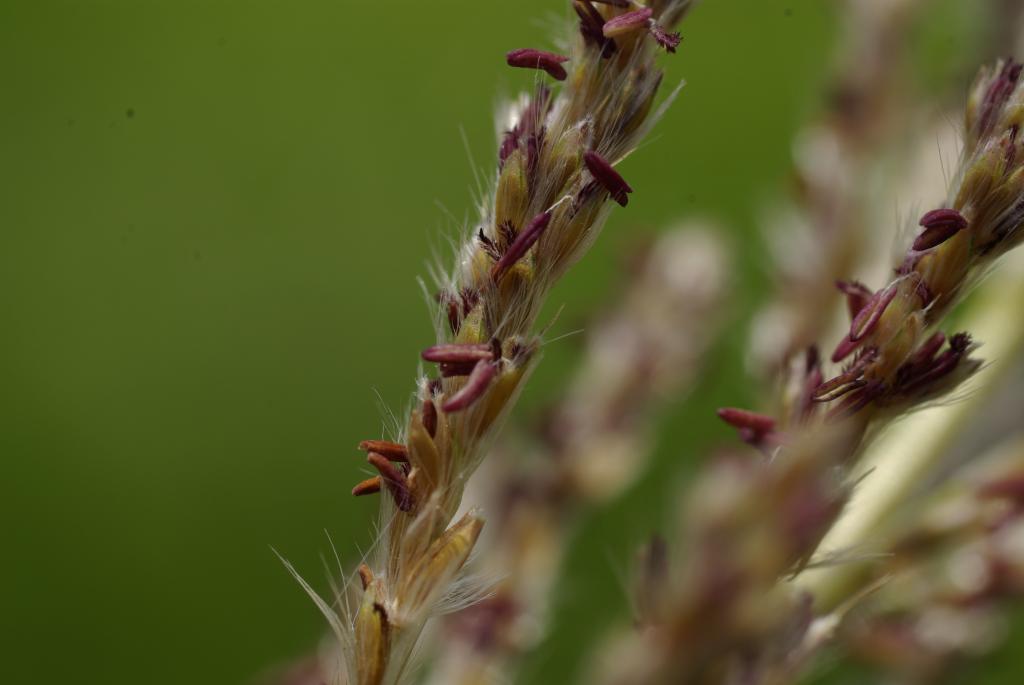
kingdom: Plantae
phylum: Tracheophyta
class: Liliopsida
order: Poales
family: Poaceae
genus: Narenga
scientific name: Narenga porphyrocoma
